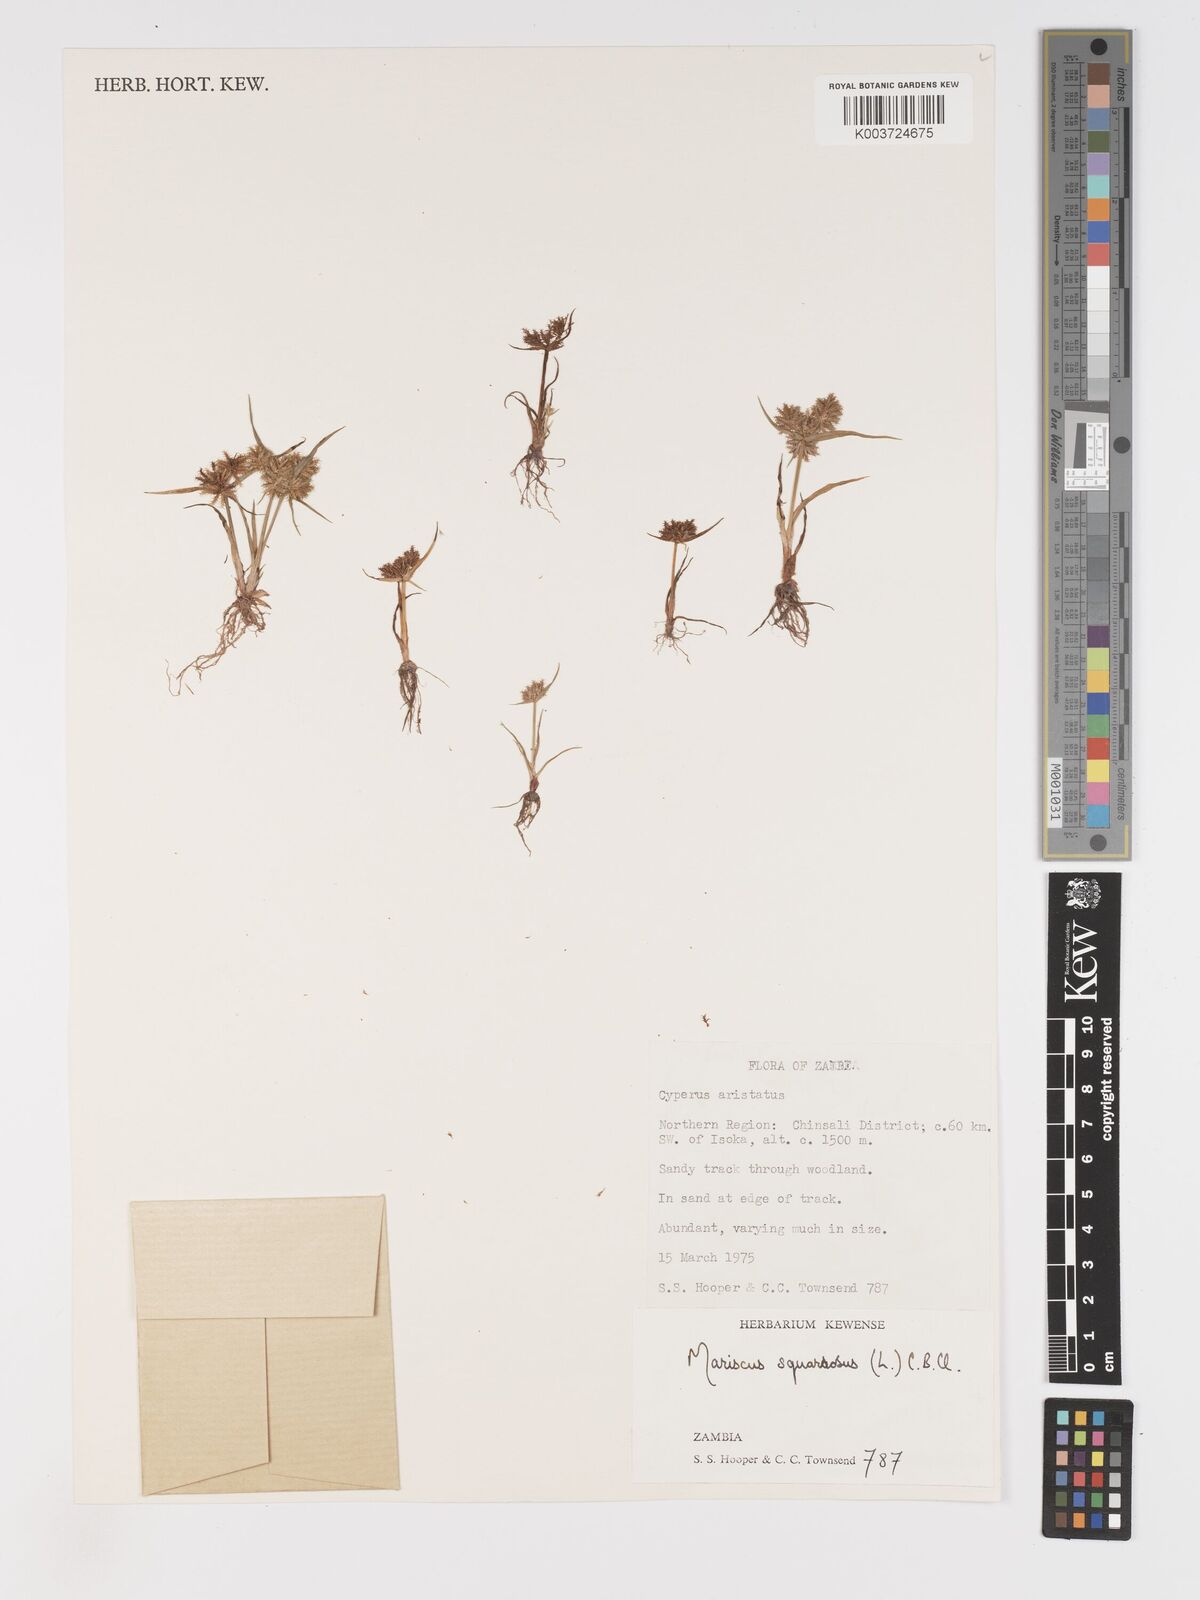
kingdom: Plantae
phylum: Tracheophyta
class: Liliopsida
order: Poales
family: Cyperaceae
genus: Cyperus
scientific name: Cyperus squarrosus
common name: Awned cyperus
